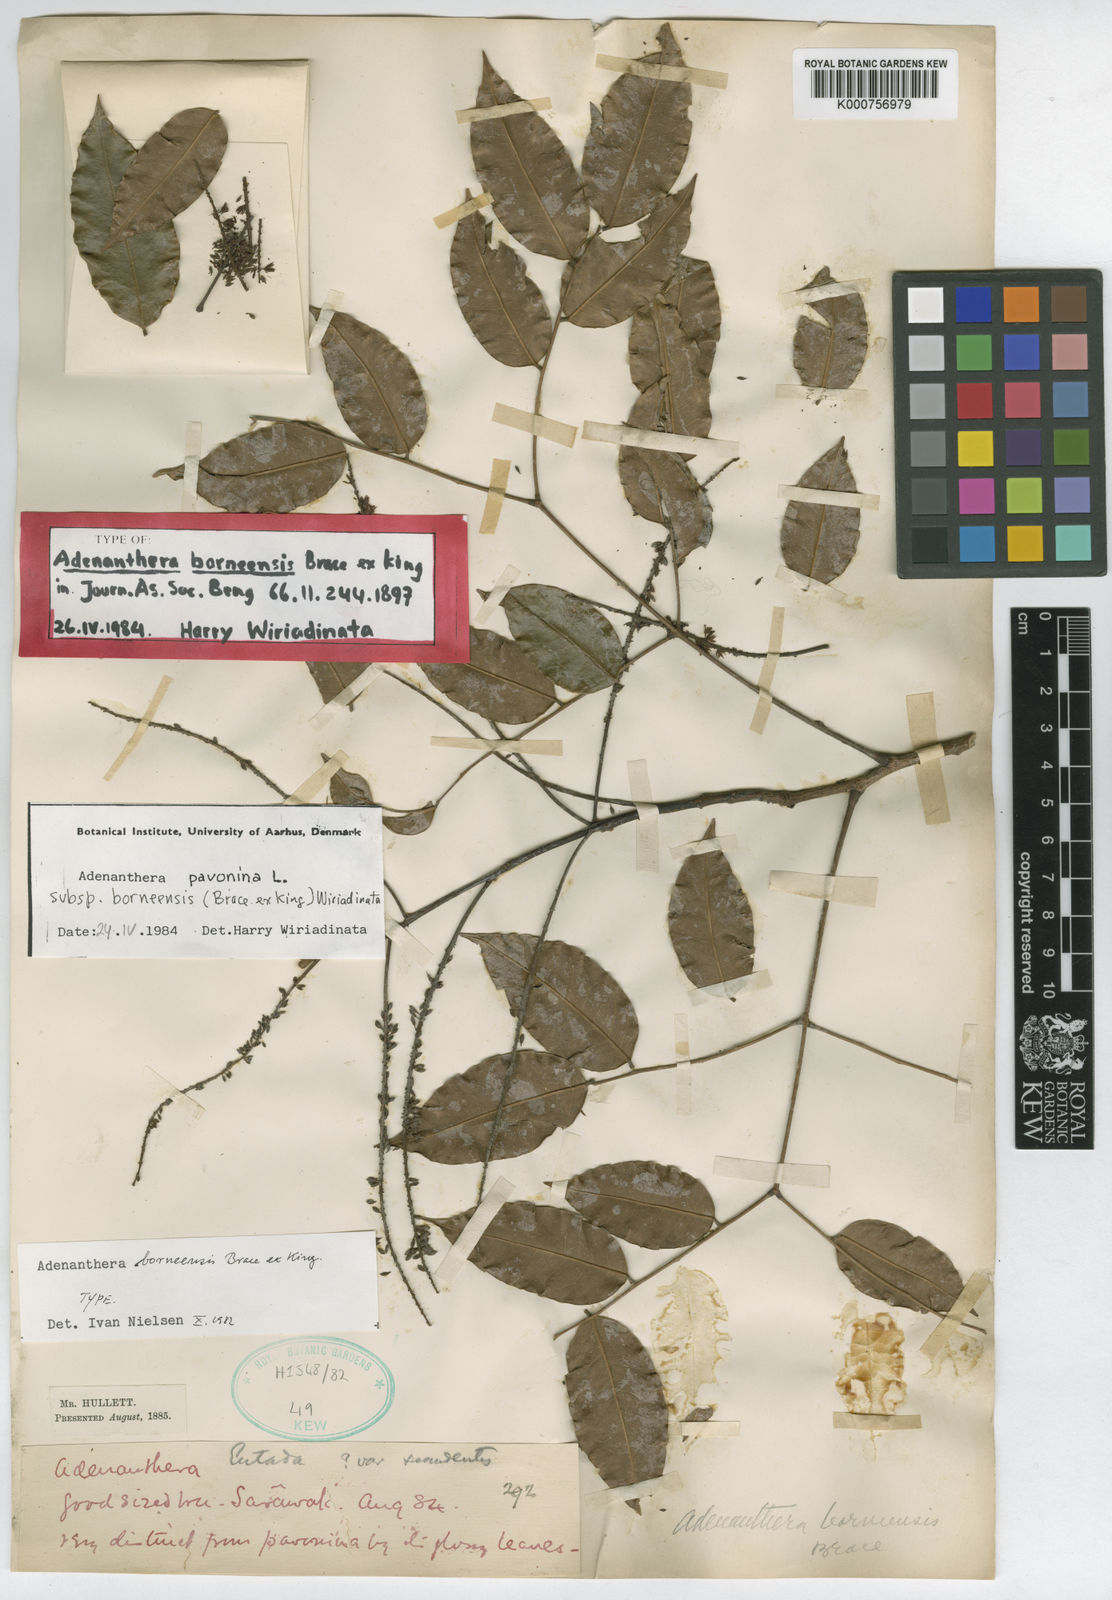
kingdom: Plantae
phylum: Tracheophyta
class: Magnoliopsida
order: Fabales
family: Fabaceae
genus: Adenanthera
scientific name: Adenanthera pavonina
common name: Red beadtree
